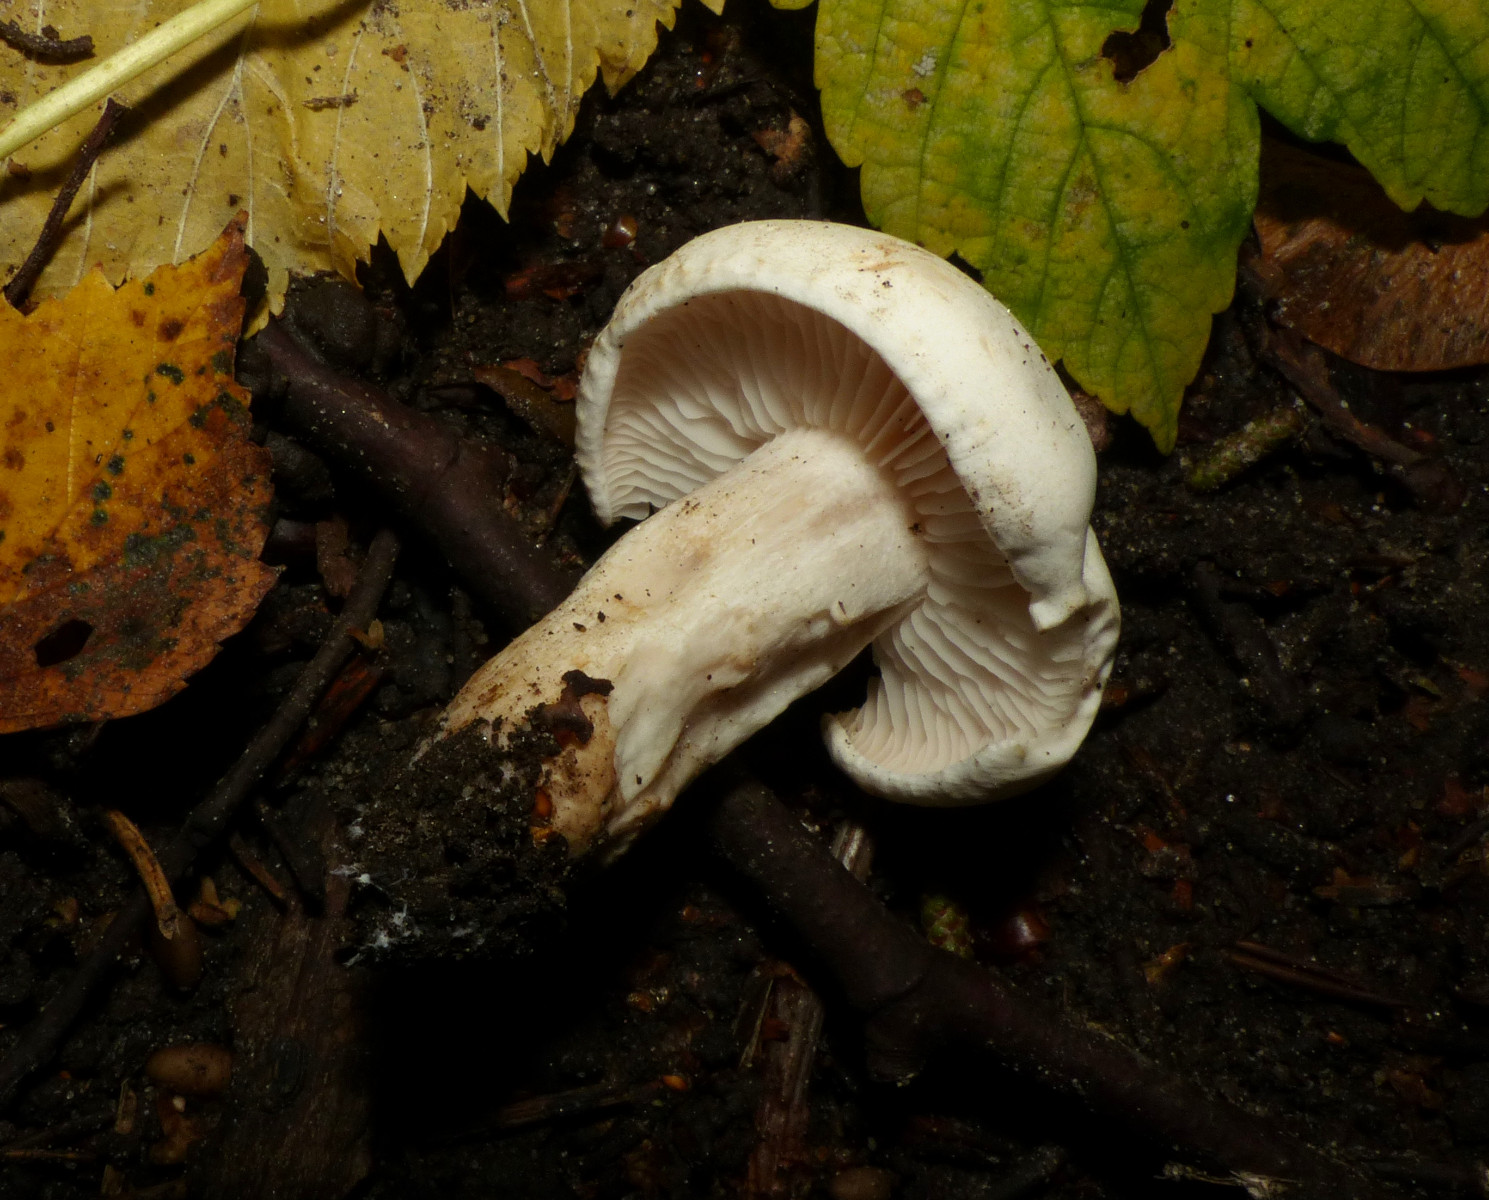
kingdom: Fungi
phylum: Basidiomycota
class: Agaricomycetes
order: Agaricales
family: Tricholomataceae
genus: Tricholoma
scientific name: Tricholoma stiparophyllum
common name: hvid ridderhat
